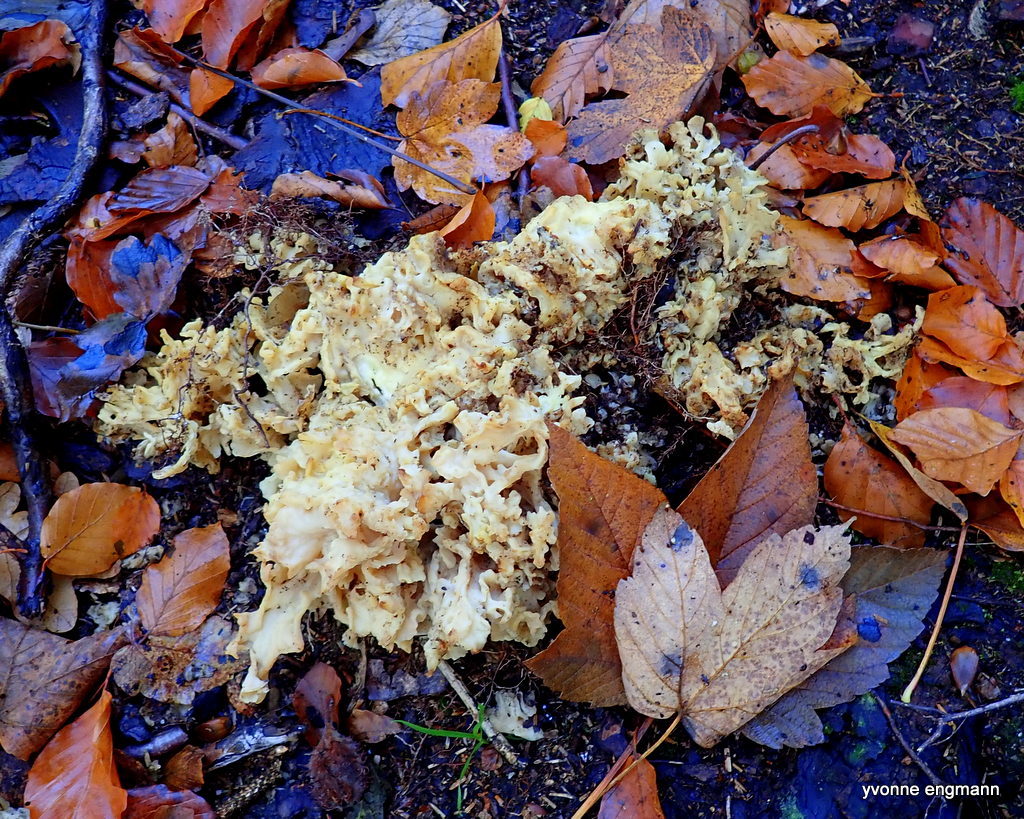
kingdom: Fungi
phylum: Basidiomycota
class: Agaricomycetes
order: Polyporales
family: Sparassidaceae
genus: Sparassis
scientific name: Sparassis crispa
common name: kruset blomkålssvamp
